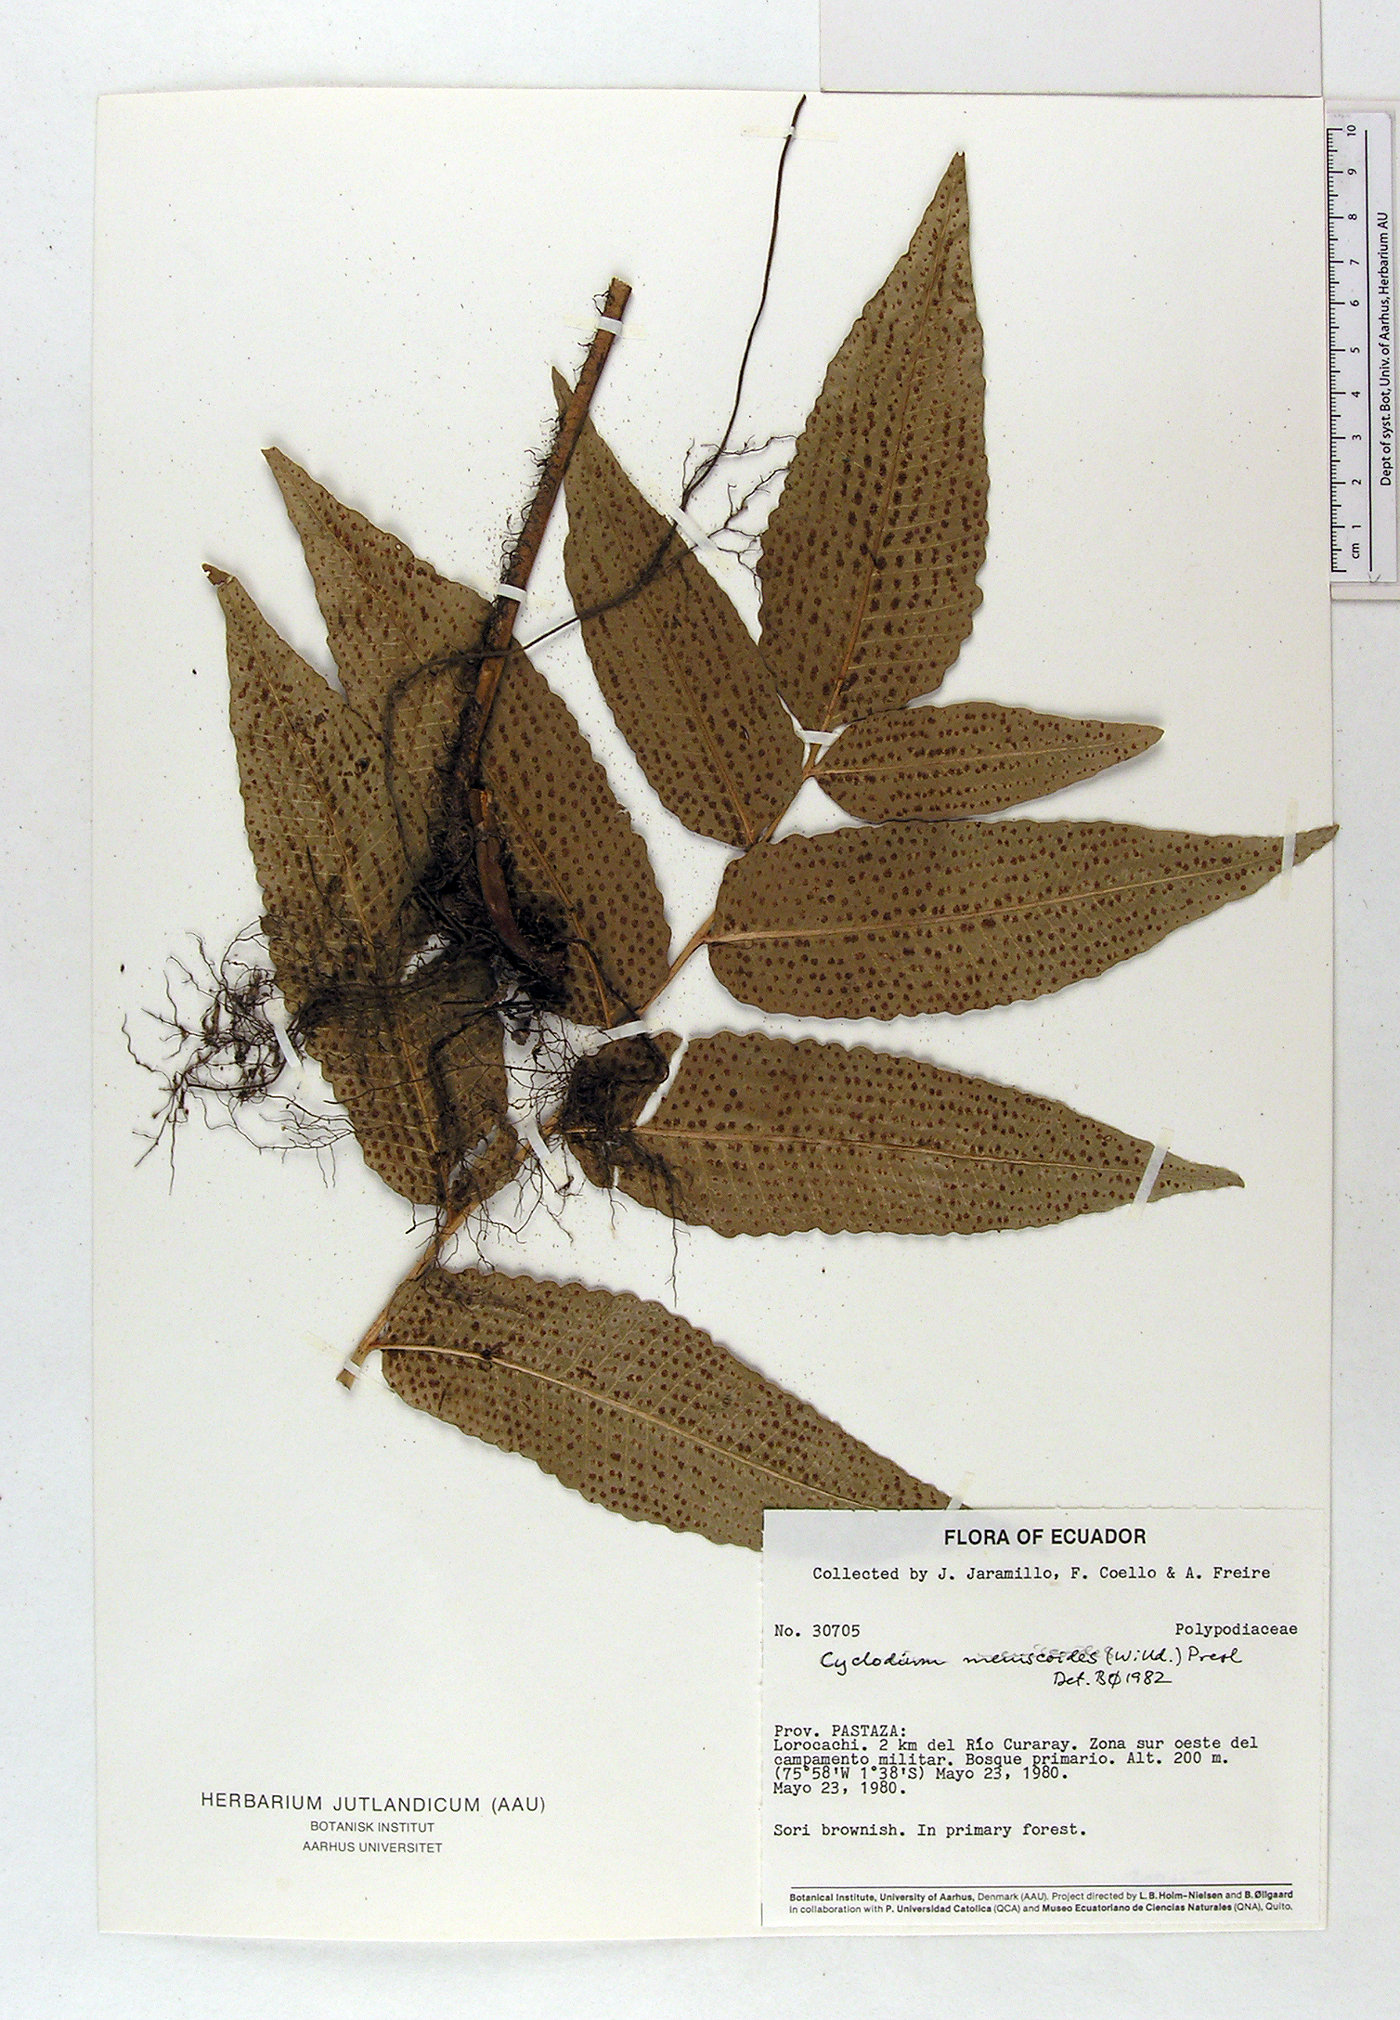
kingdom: Plantae
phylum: Tracheophyta
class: Polypodiopsida
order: Polypodiales
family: Dryopteridaceae
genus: Cyclodium
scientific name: Cyclodium meniscioides
